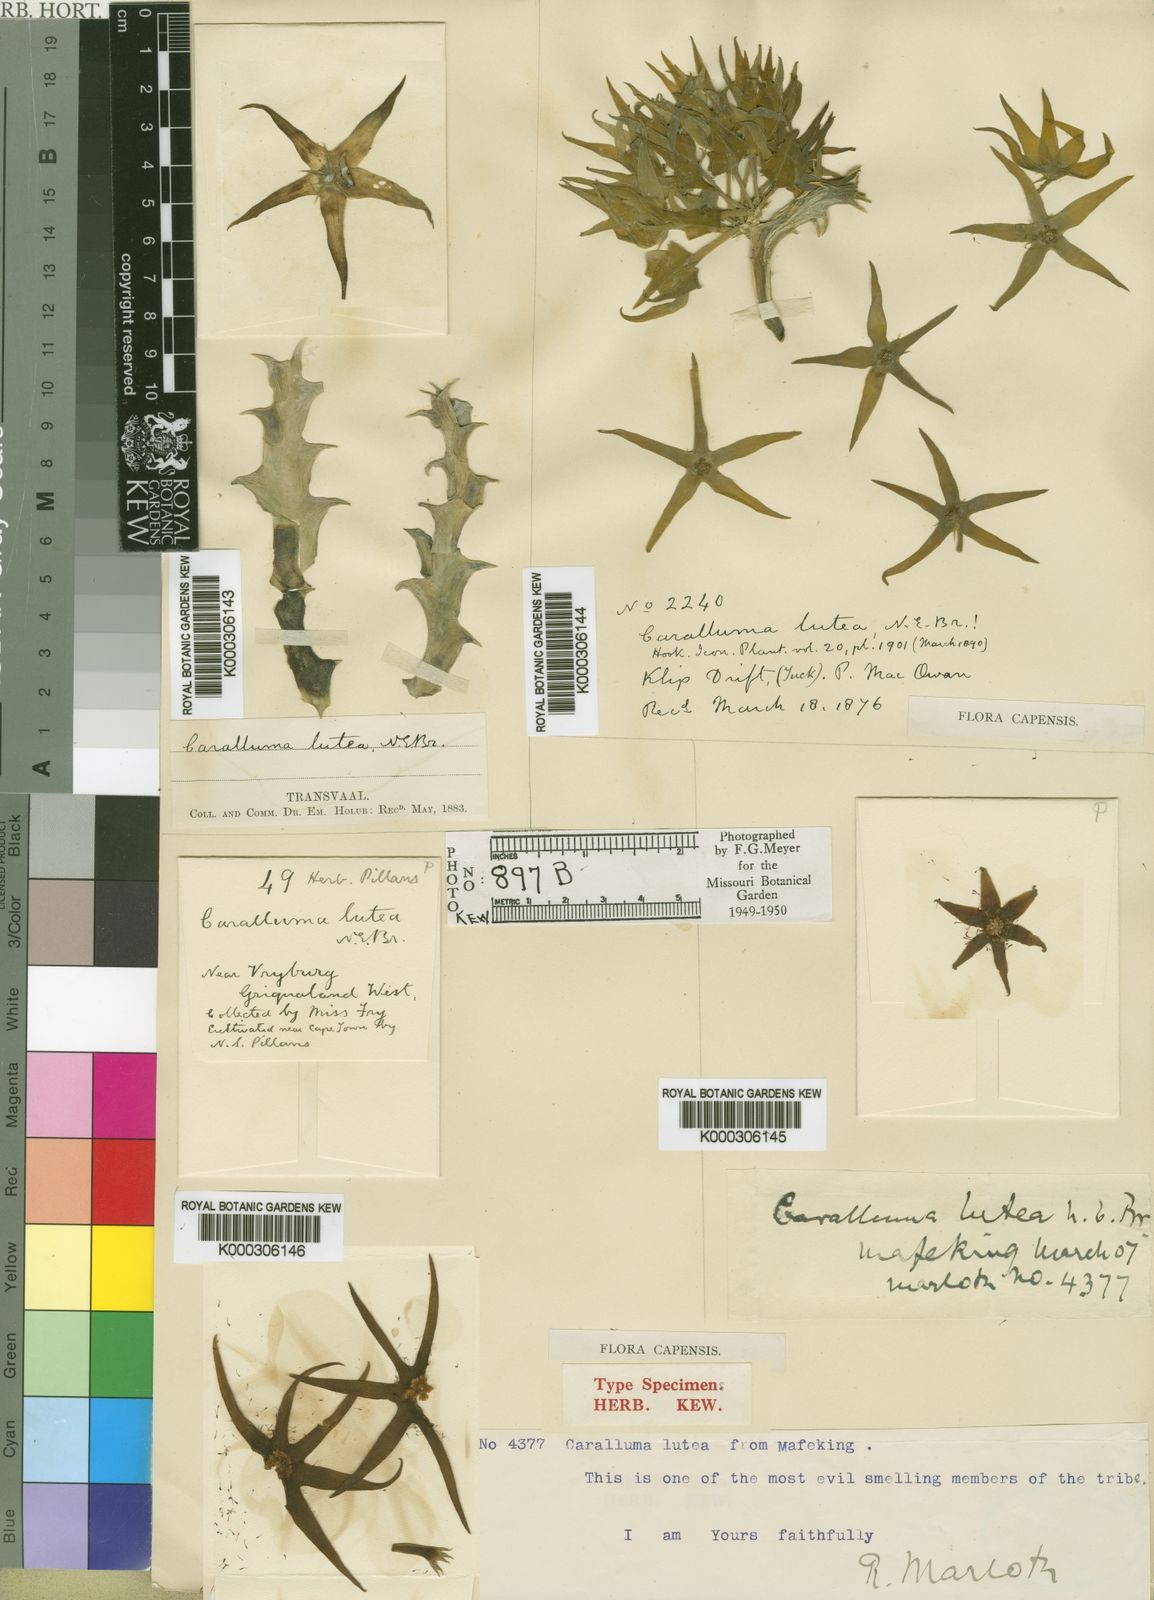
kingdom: Plantae
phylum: Tracheophyta
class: Magnoliopsida
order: Gentianales
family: Apocynaceae
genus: Ceropegia
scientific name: Ceropegia lutea
